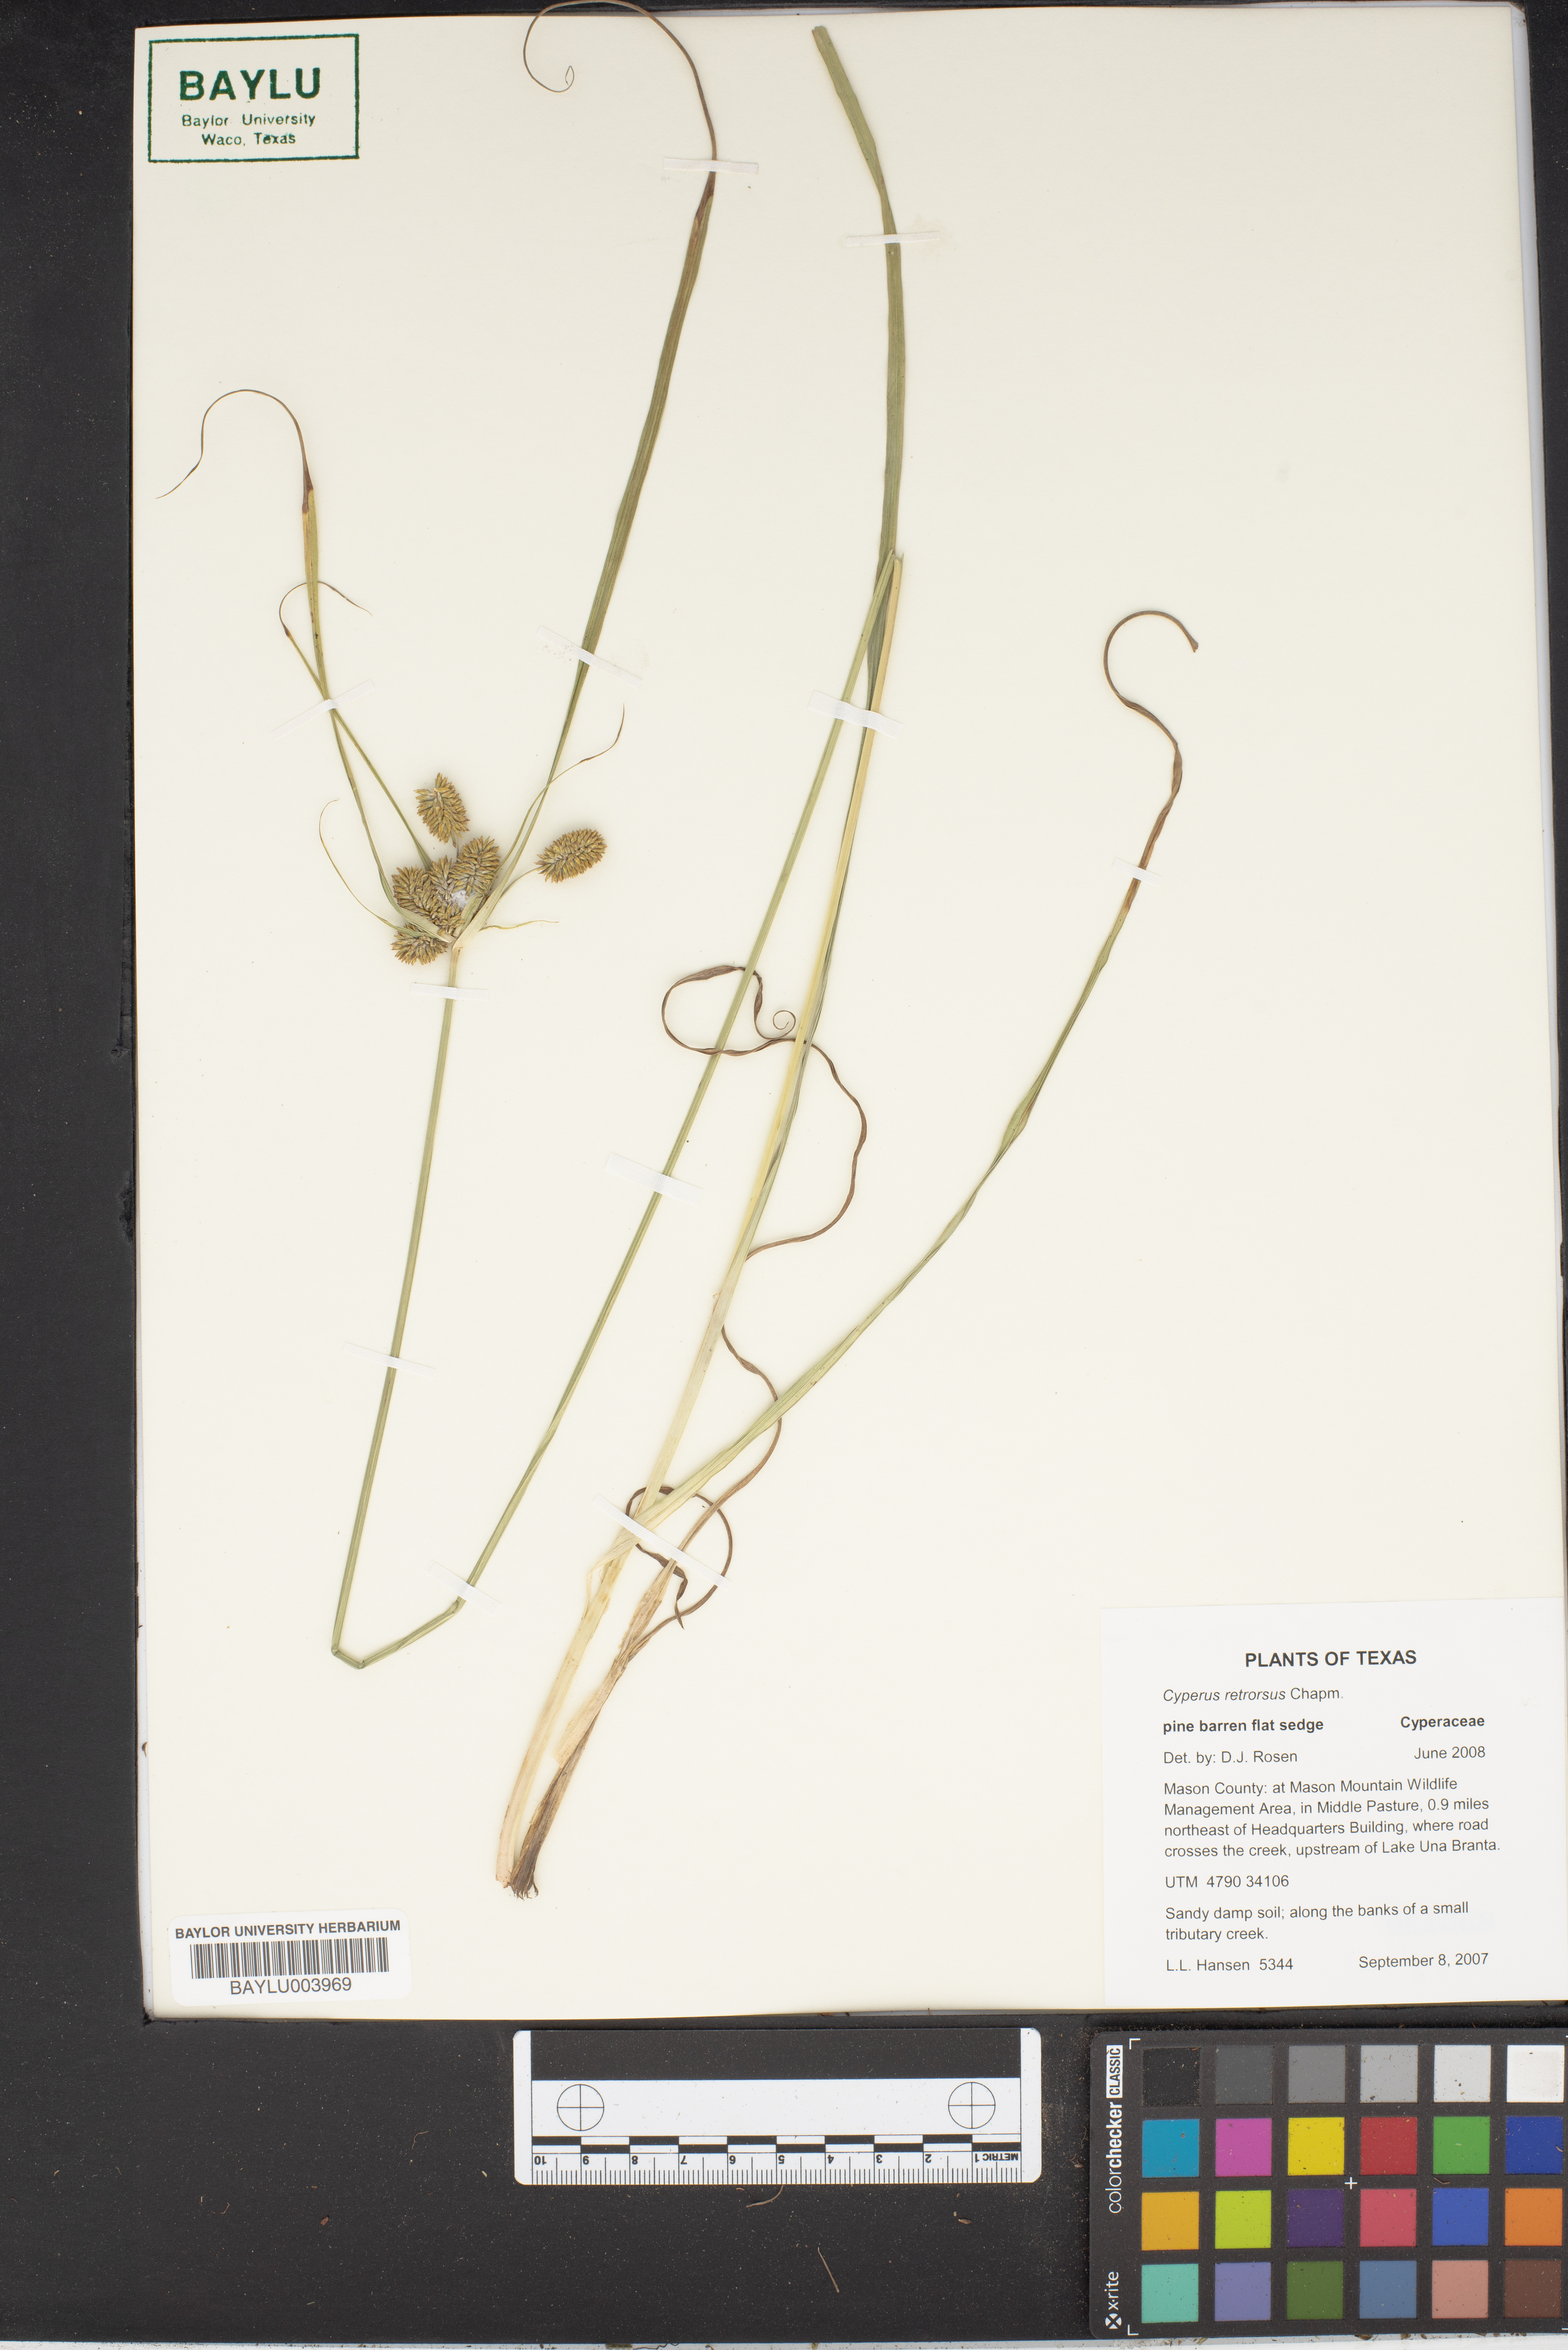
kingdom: Plantae
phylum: Tracheophyta
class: Liliopsida
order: Poales
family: Cyperaceae
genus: Cyperus
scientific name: Cyperus retrorsus
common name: Pinebarren flat sedge
